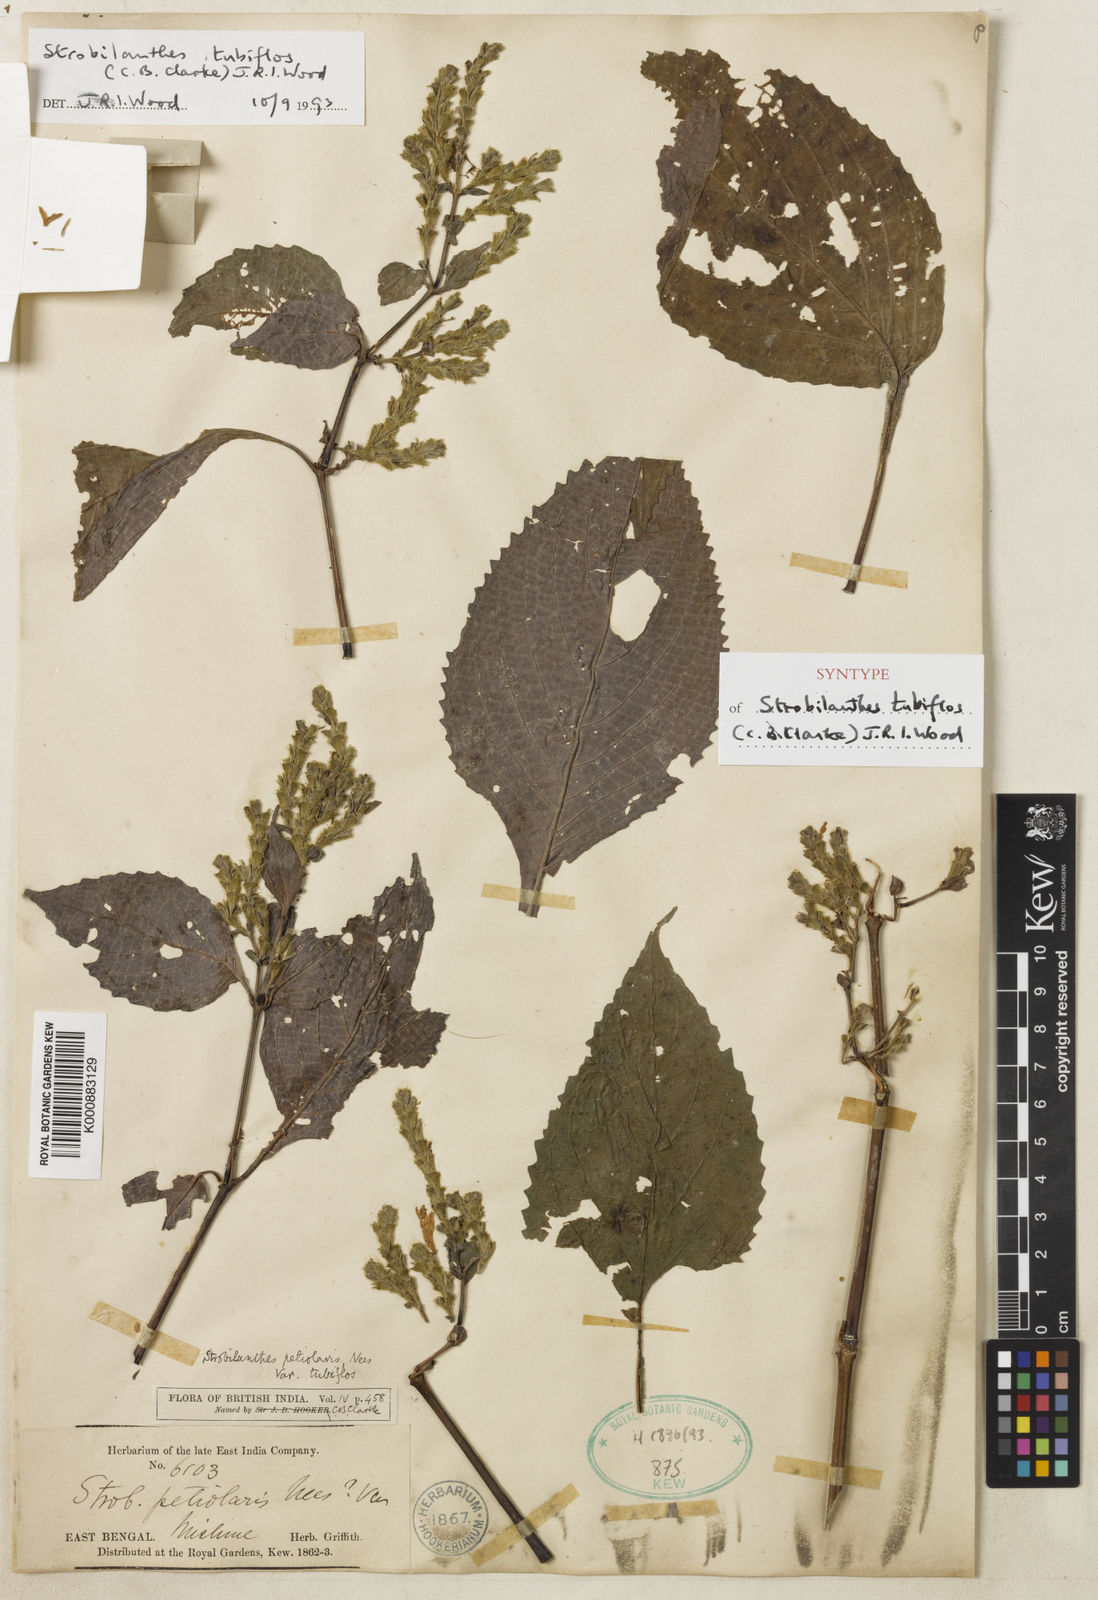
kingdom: Plantae
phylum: Tracheophyta
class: Magnoliopsida
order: Lamiales
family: Acanthaceae
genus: Strobilanthes
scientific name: Strobilanthes tubiflos
